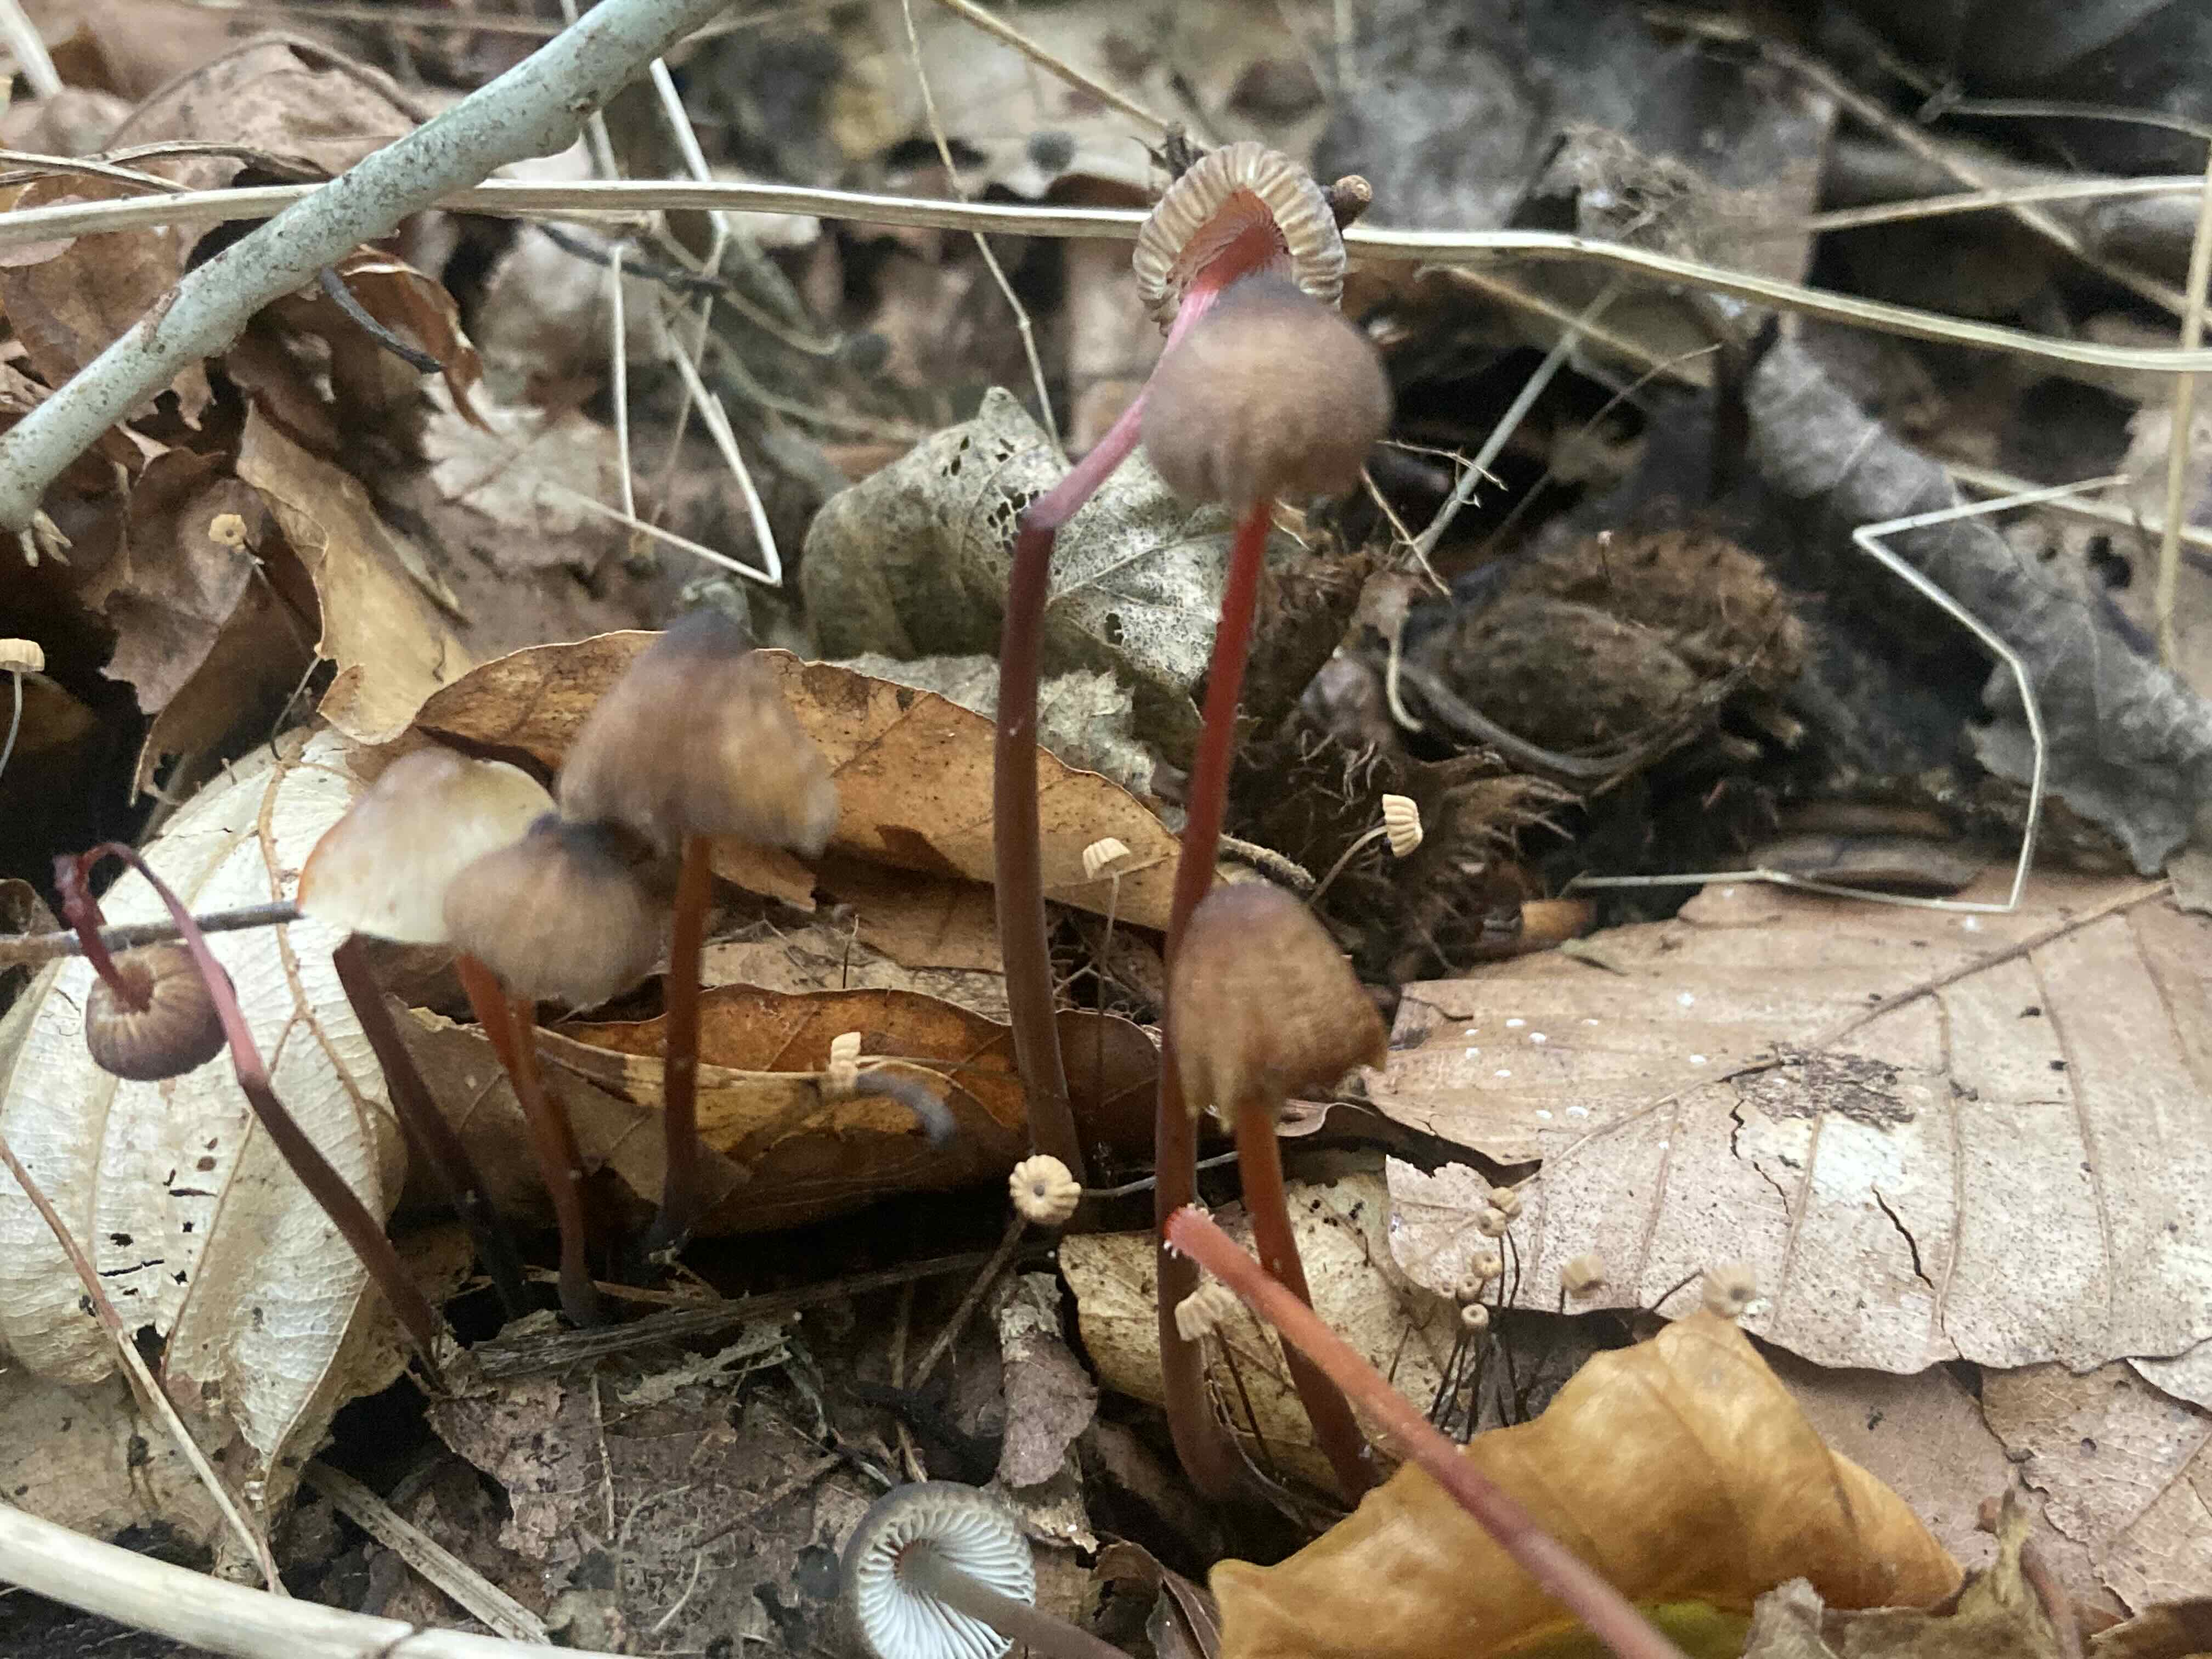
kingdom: Fungi
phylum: Basidiomycota
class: Agaricomycetes
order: Agaricales
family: Mycenaceae
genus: Mycena
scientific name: Mycena crocata
